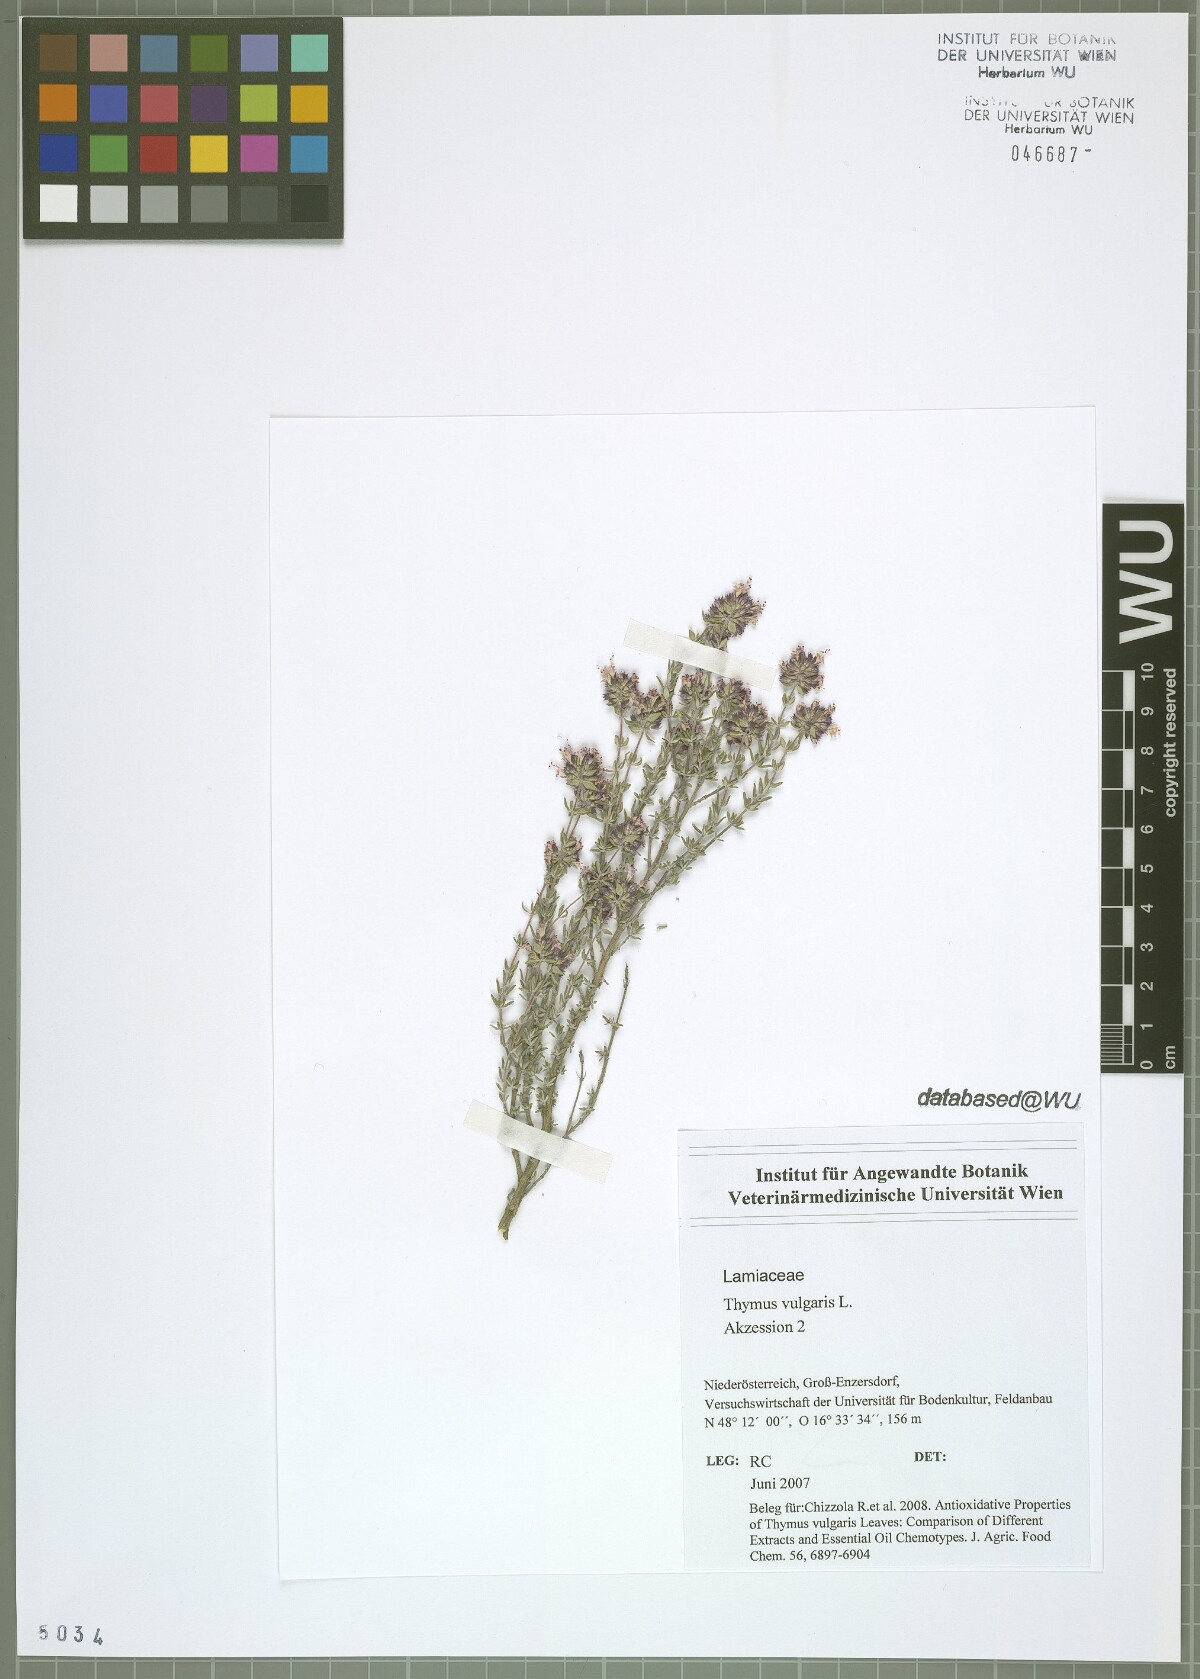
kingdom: Plantae
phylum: Tracheophyta
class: Magnoliopsida
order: Lamiales
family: Lamiaceae
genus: Thymus
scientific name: Thymus vulgaris
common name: Garden thyme
